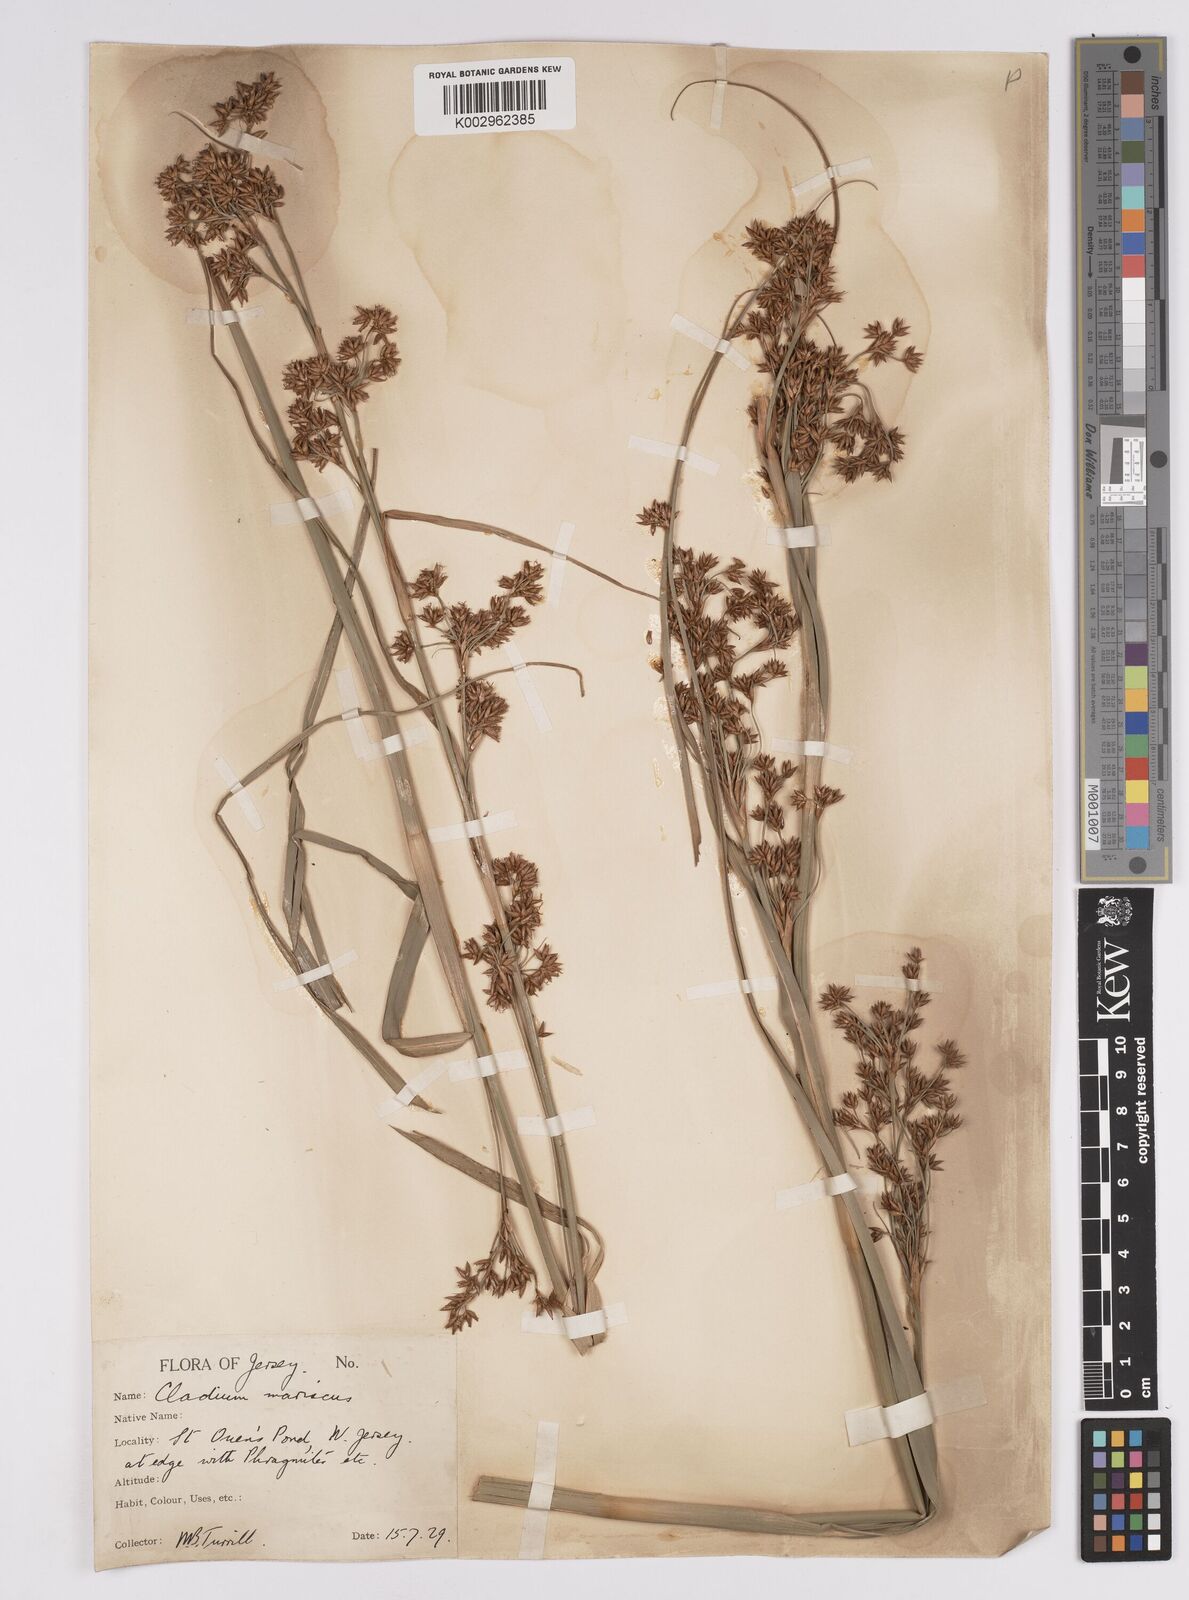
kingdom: Plantae
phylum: Tracheophyta
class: Liliopsida
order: Poales
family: Cyperaceae
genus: Cladium
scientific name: Cladium mariscus
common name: Great fen-sedge
